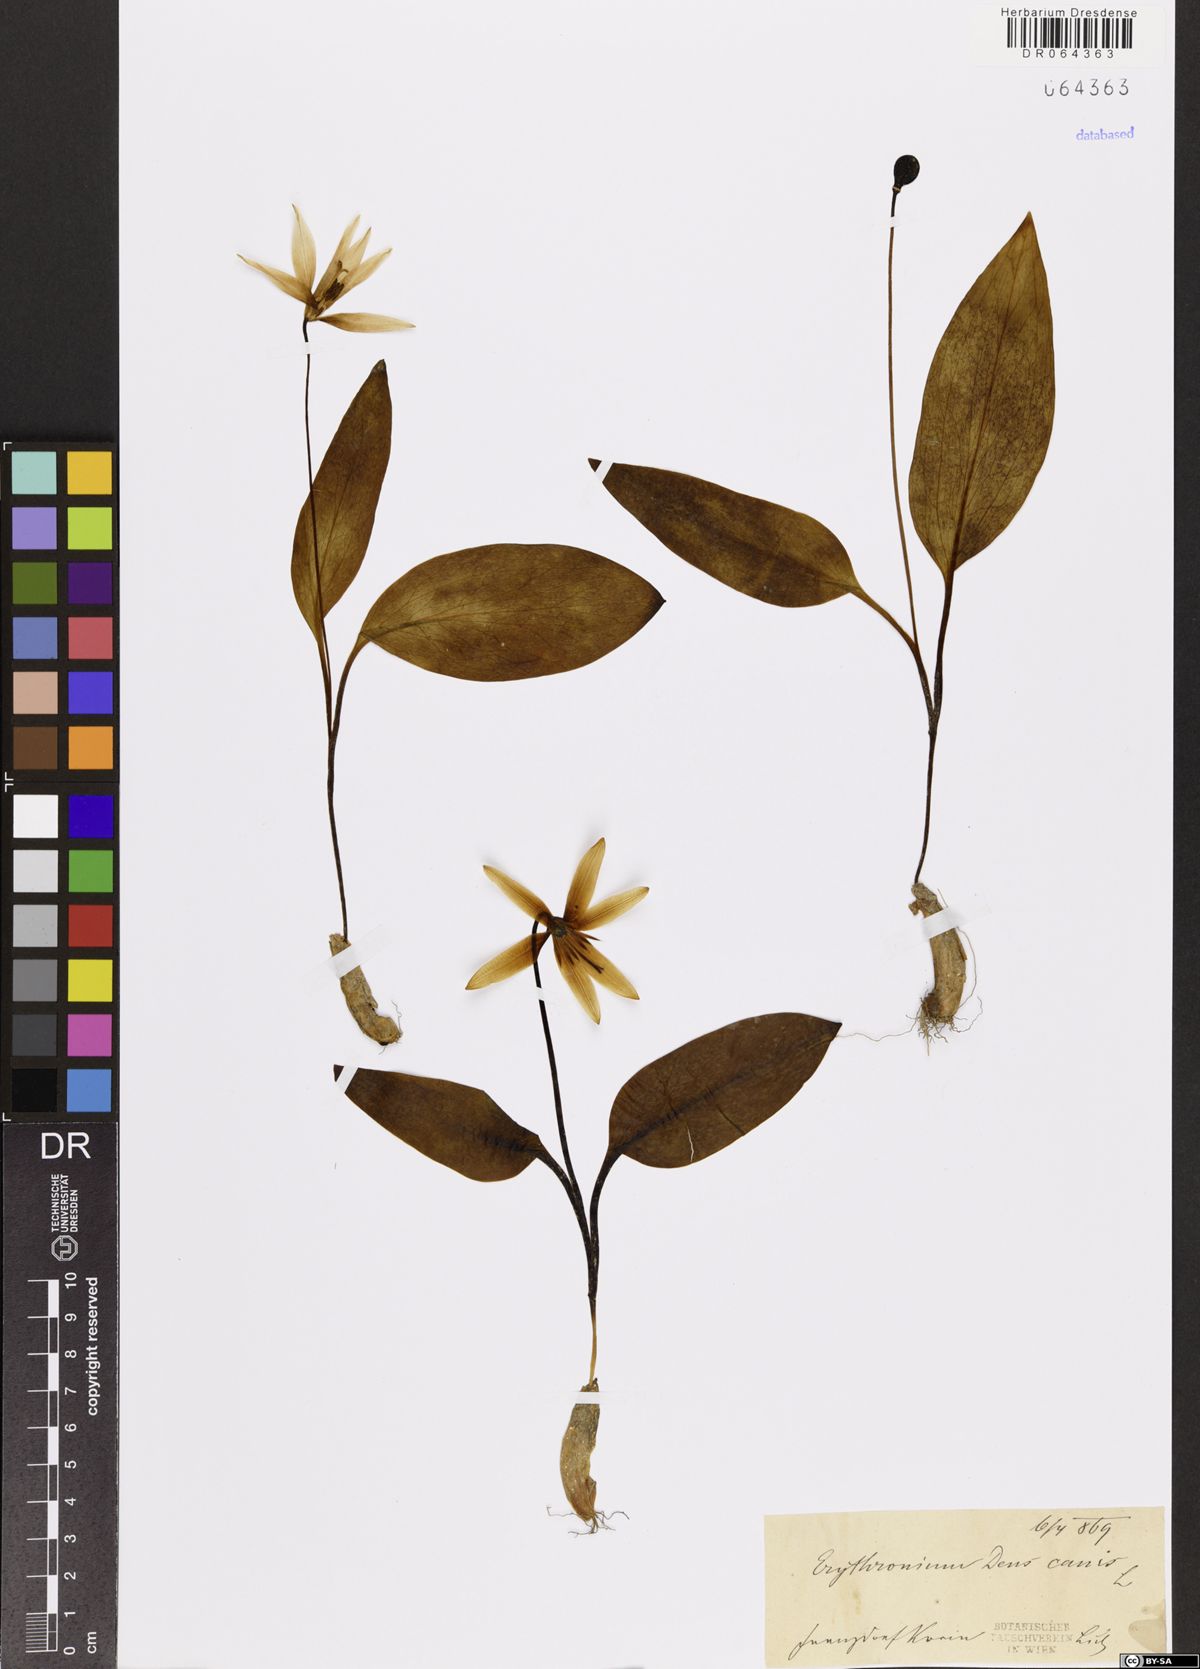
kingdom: Plantae
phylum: Tracheophyta
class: Liliopsida
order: Liliales
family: Liliaceae
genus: Erythronium
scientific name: Erythronium dens-canis
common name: Dog's-tooth-violet
